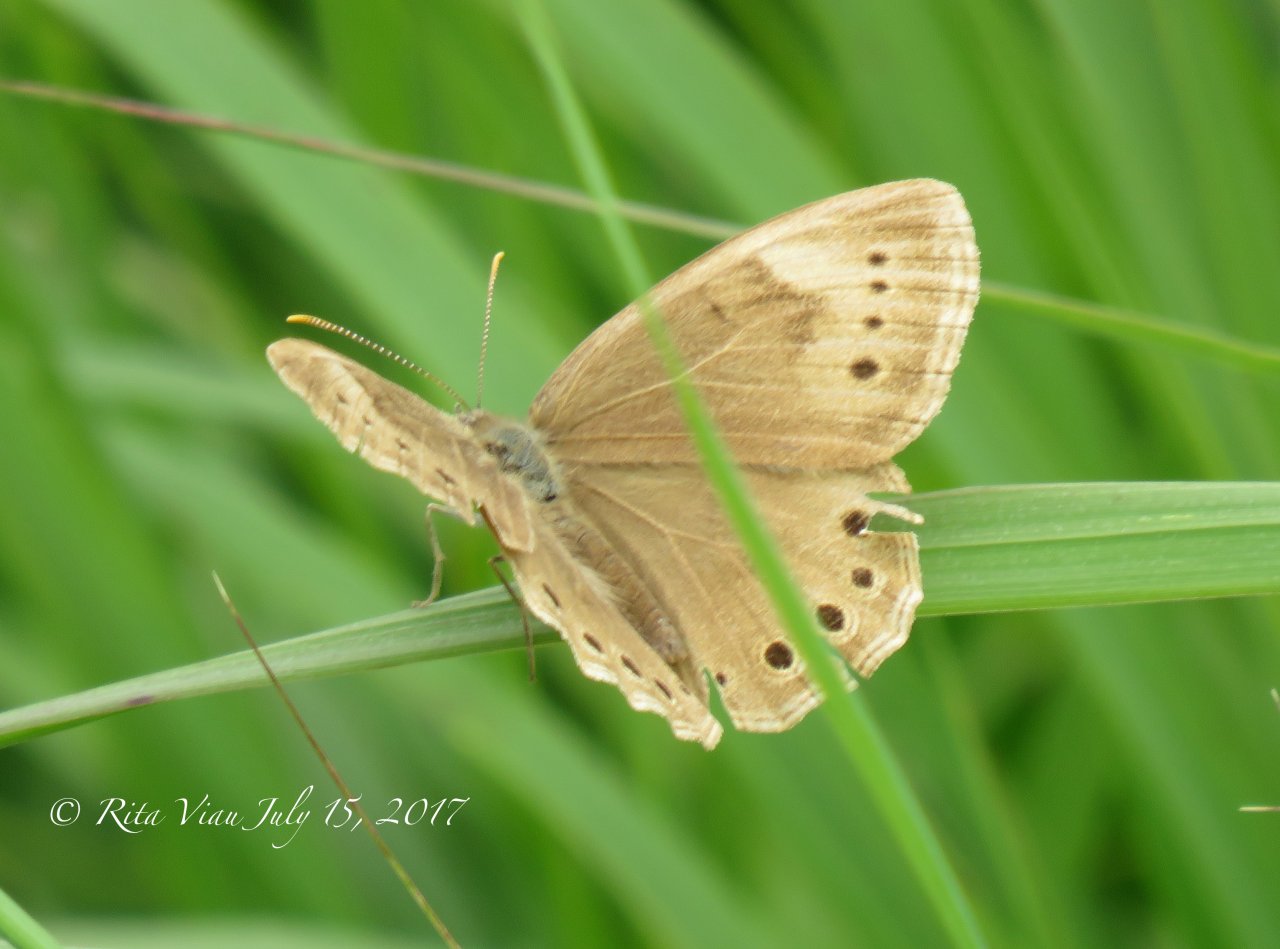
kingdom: Animalia
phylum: Arthropoda
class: Insecta
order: Lepidoptera
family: Nymphalidae
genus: Lethe
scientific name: Lethe eurydice
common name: Eyed Brown
